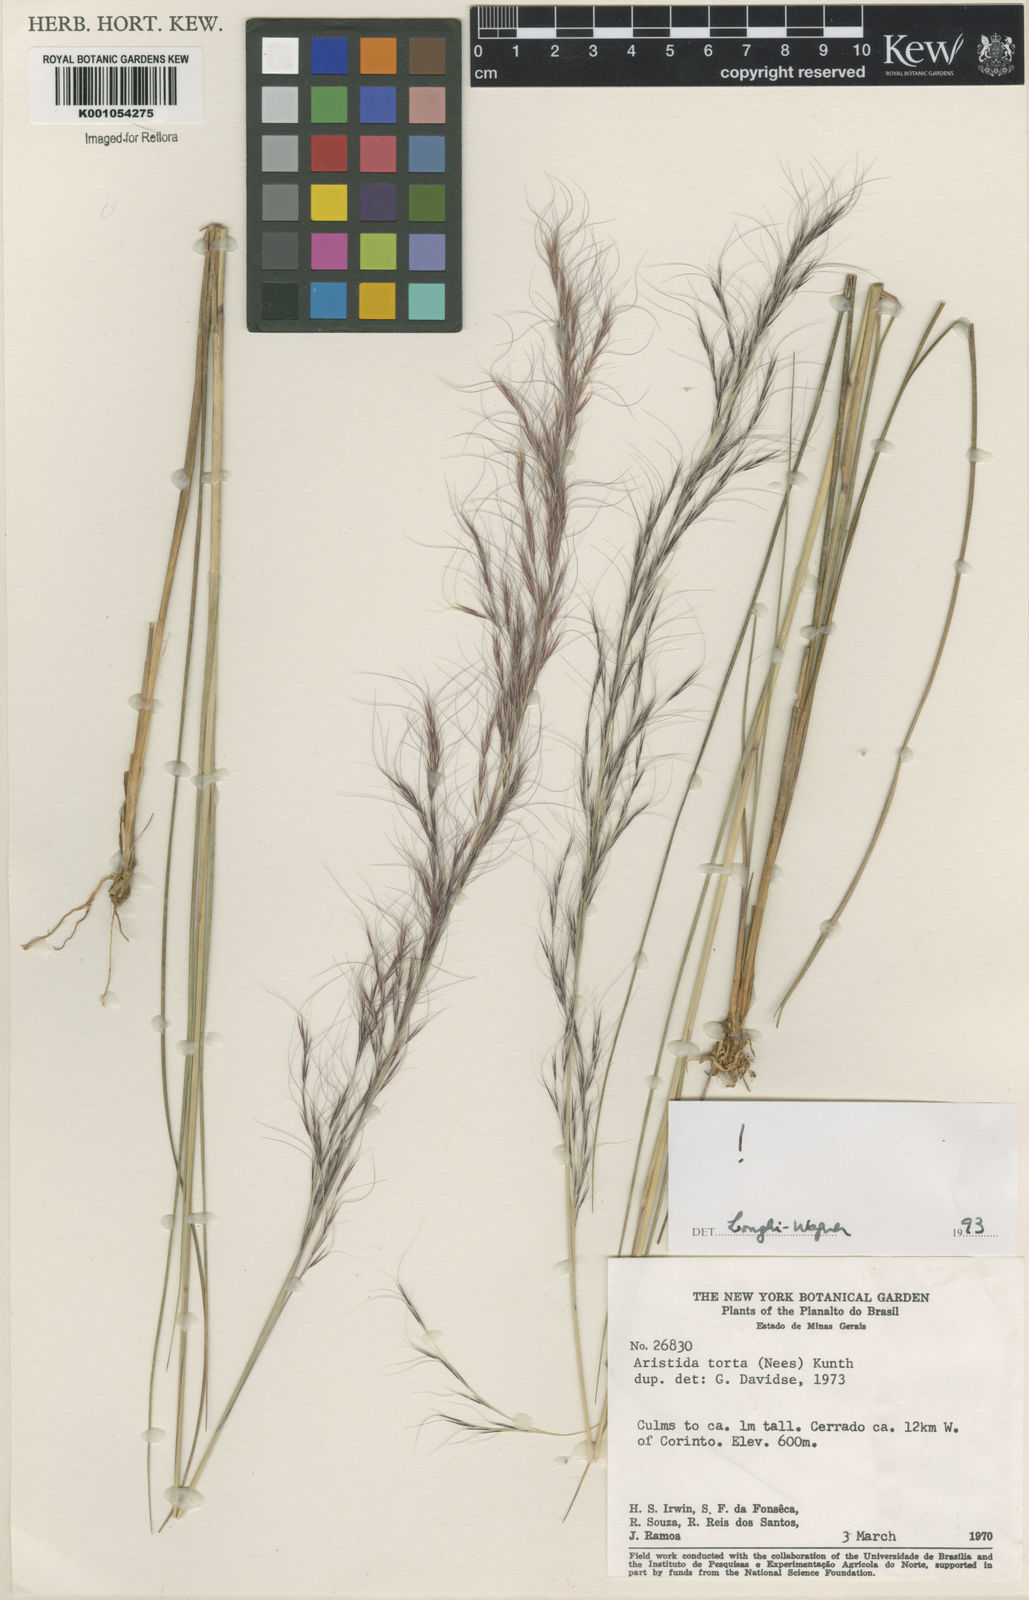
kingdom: Plantae
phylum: Tracheophyta
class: Liliopsida
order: Poales
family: Poaceae
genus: Aristida
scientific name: Aristida torta
